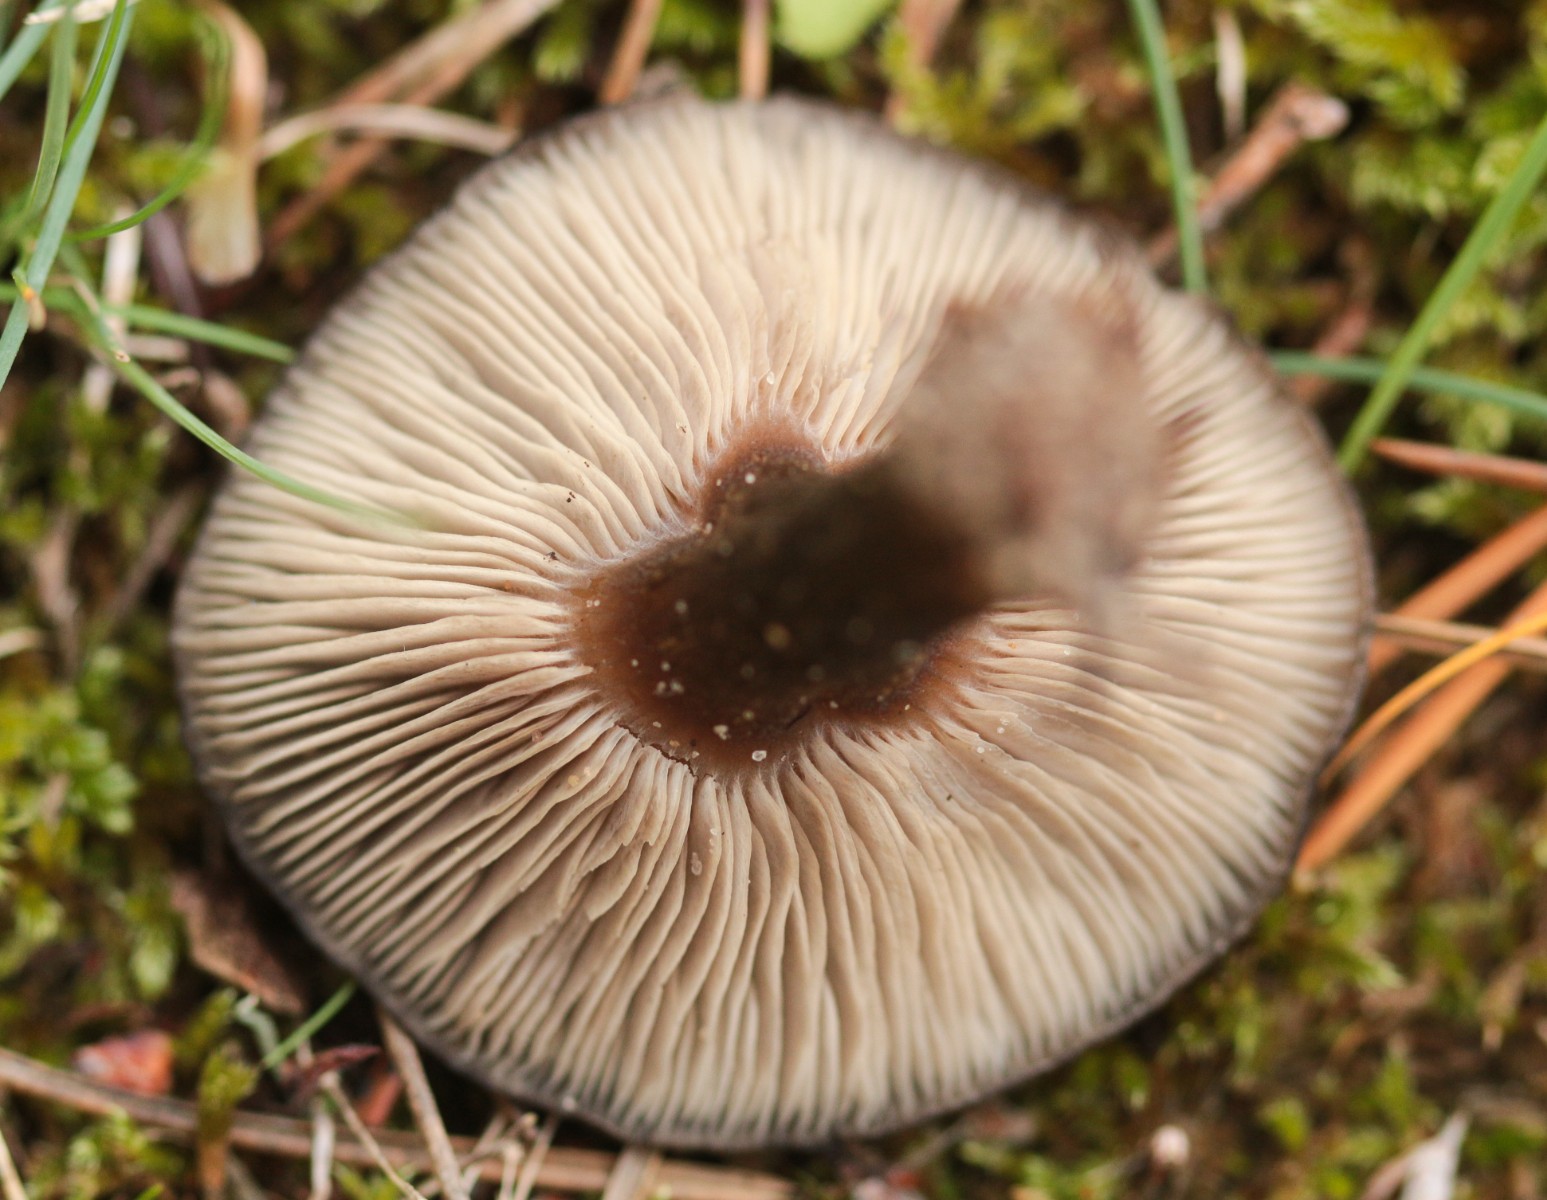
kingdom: Fungi
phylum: Basidiomycota
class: Agaricomycetes
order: Agaricales
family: Entolomataceae
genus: Entoloma
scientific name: Entoloma
